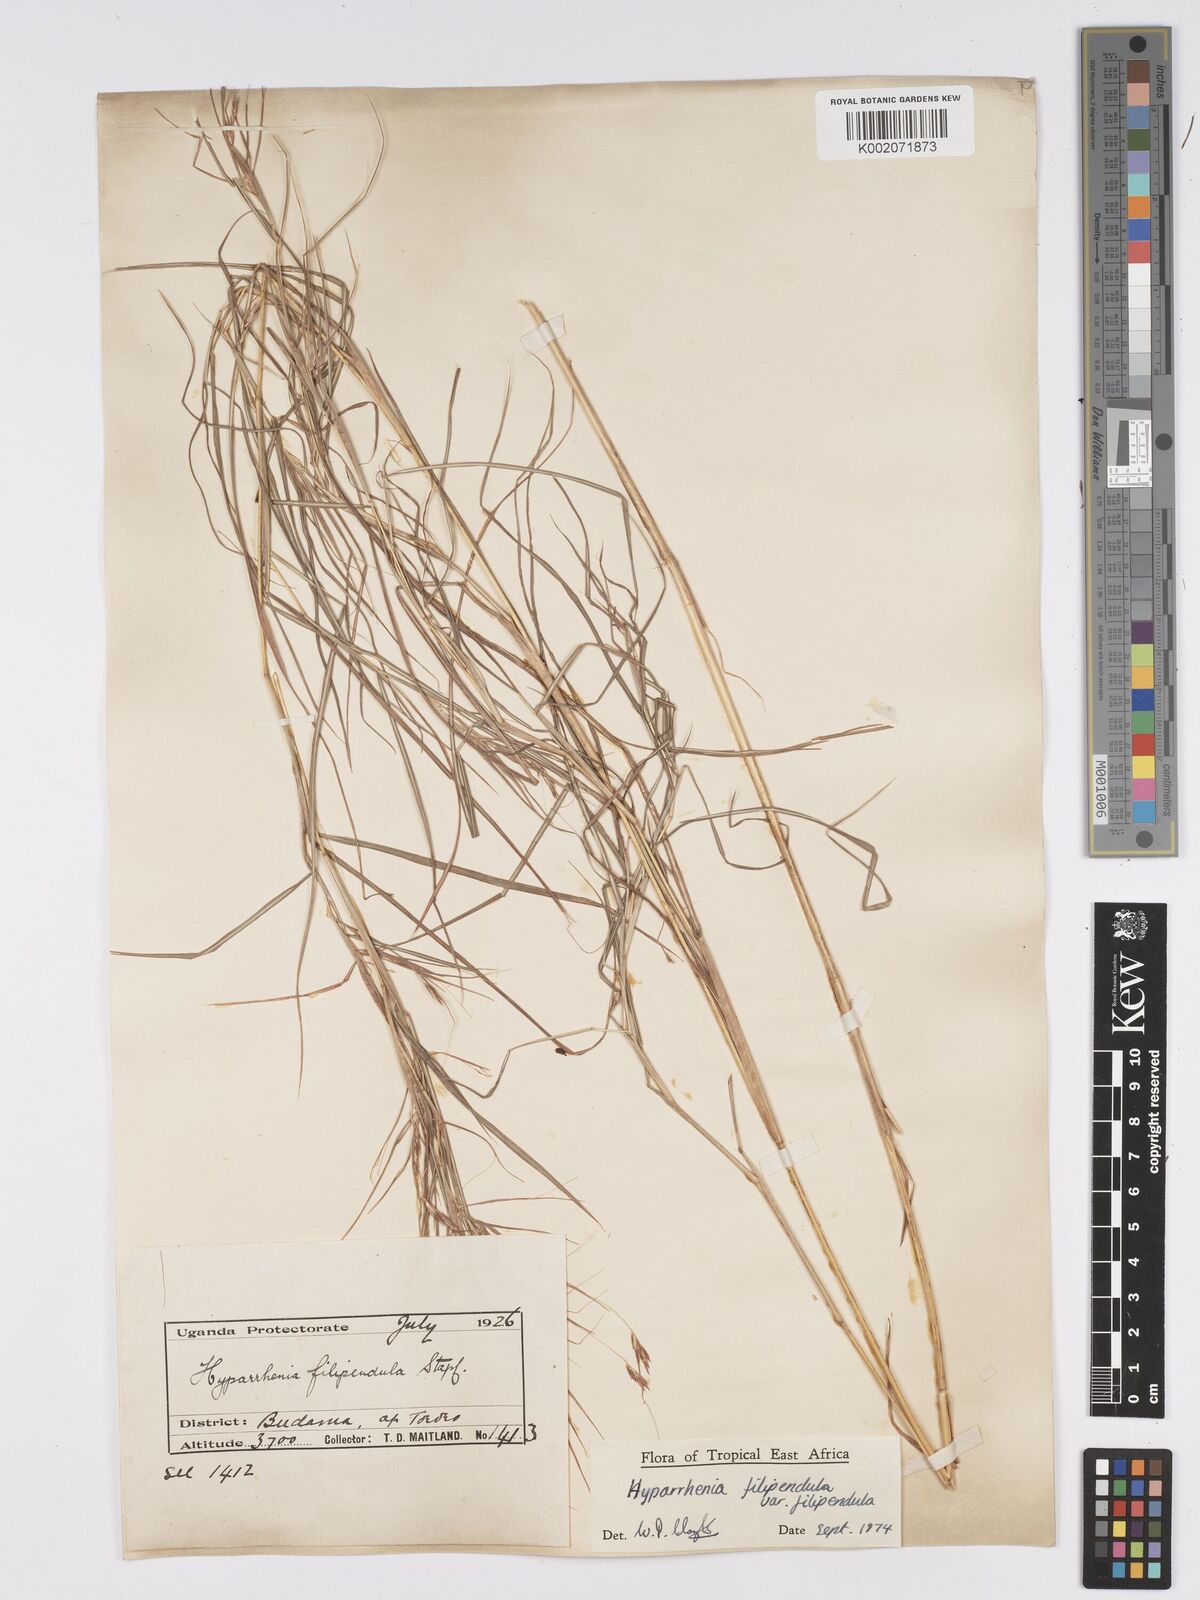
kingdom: Plantae
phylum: Tracheophyta
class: Liliopsida
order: Poales
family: Poaceae
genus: Hyparrhenia
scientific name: Hyparrhenia filipendula
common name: Tambookie grass
